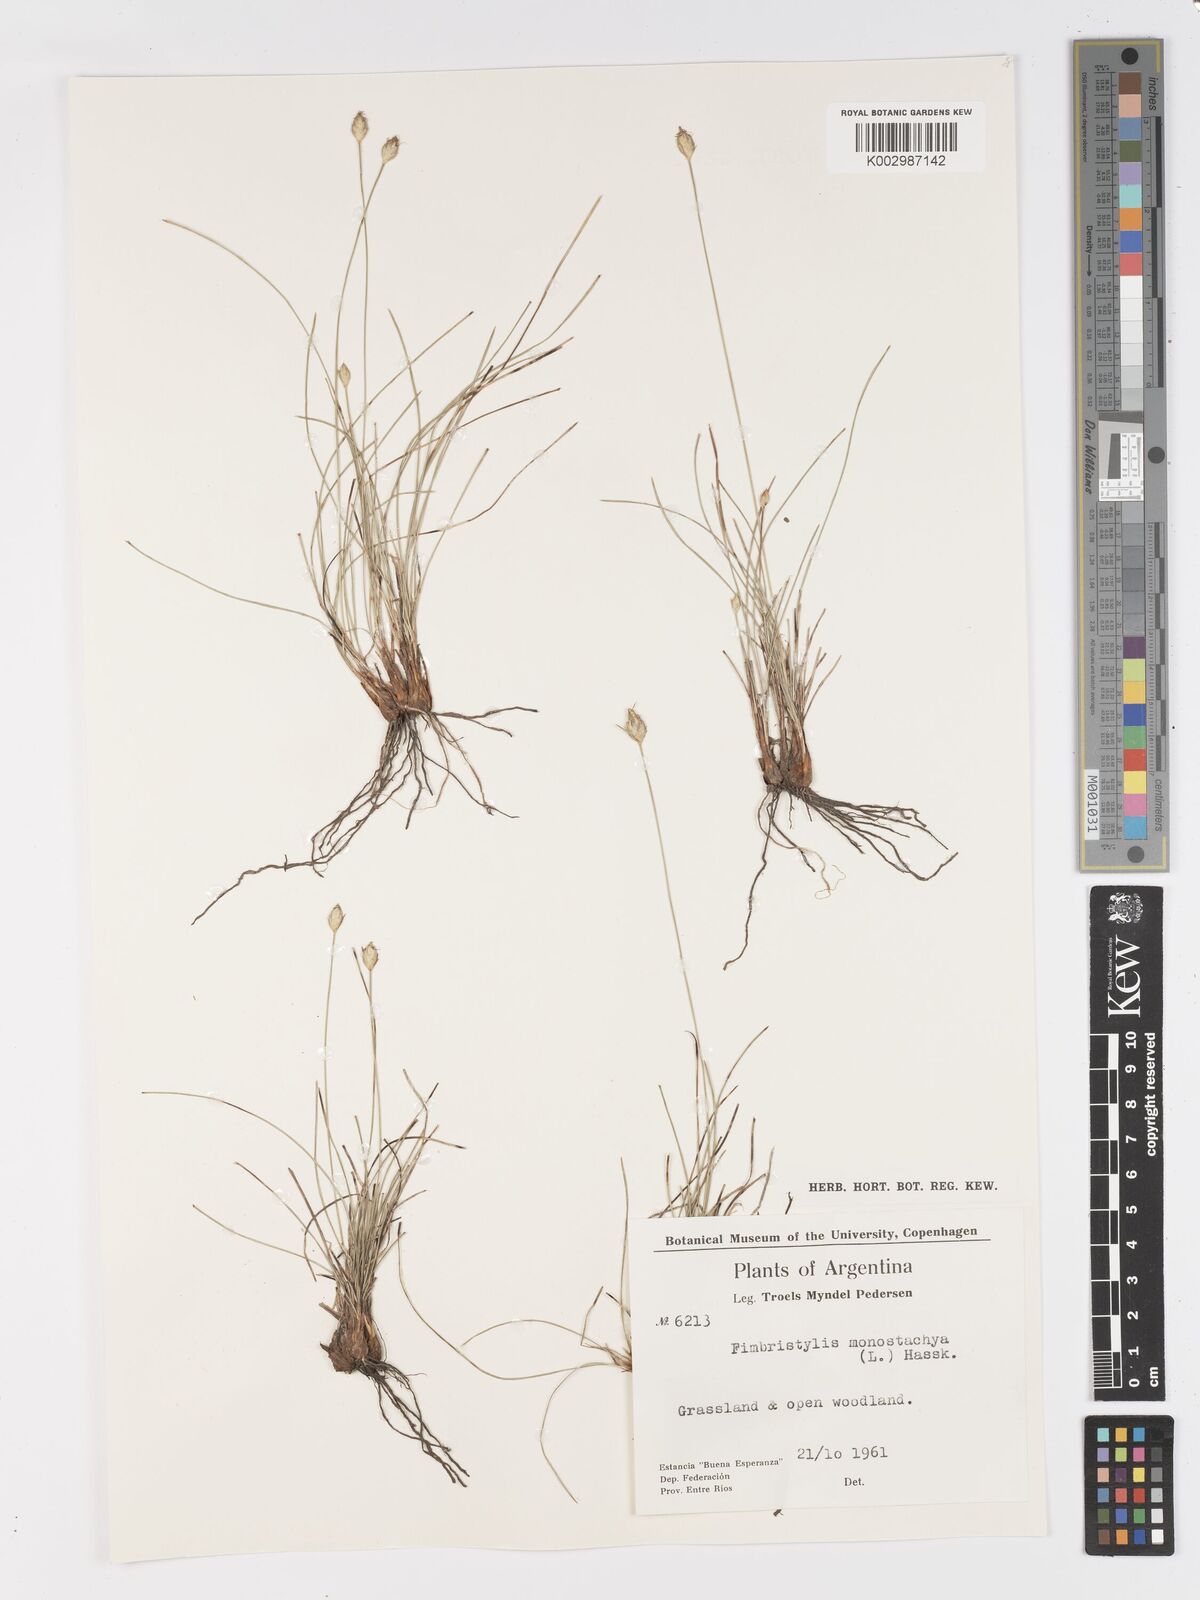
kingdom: Plantae
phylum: Tracheophyta
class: Liliopsida
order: Poales
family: Cyperaceae
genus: Abildgaardia
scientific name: Abildgaardia ovata
